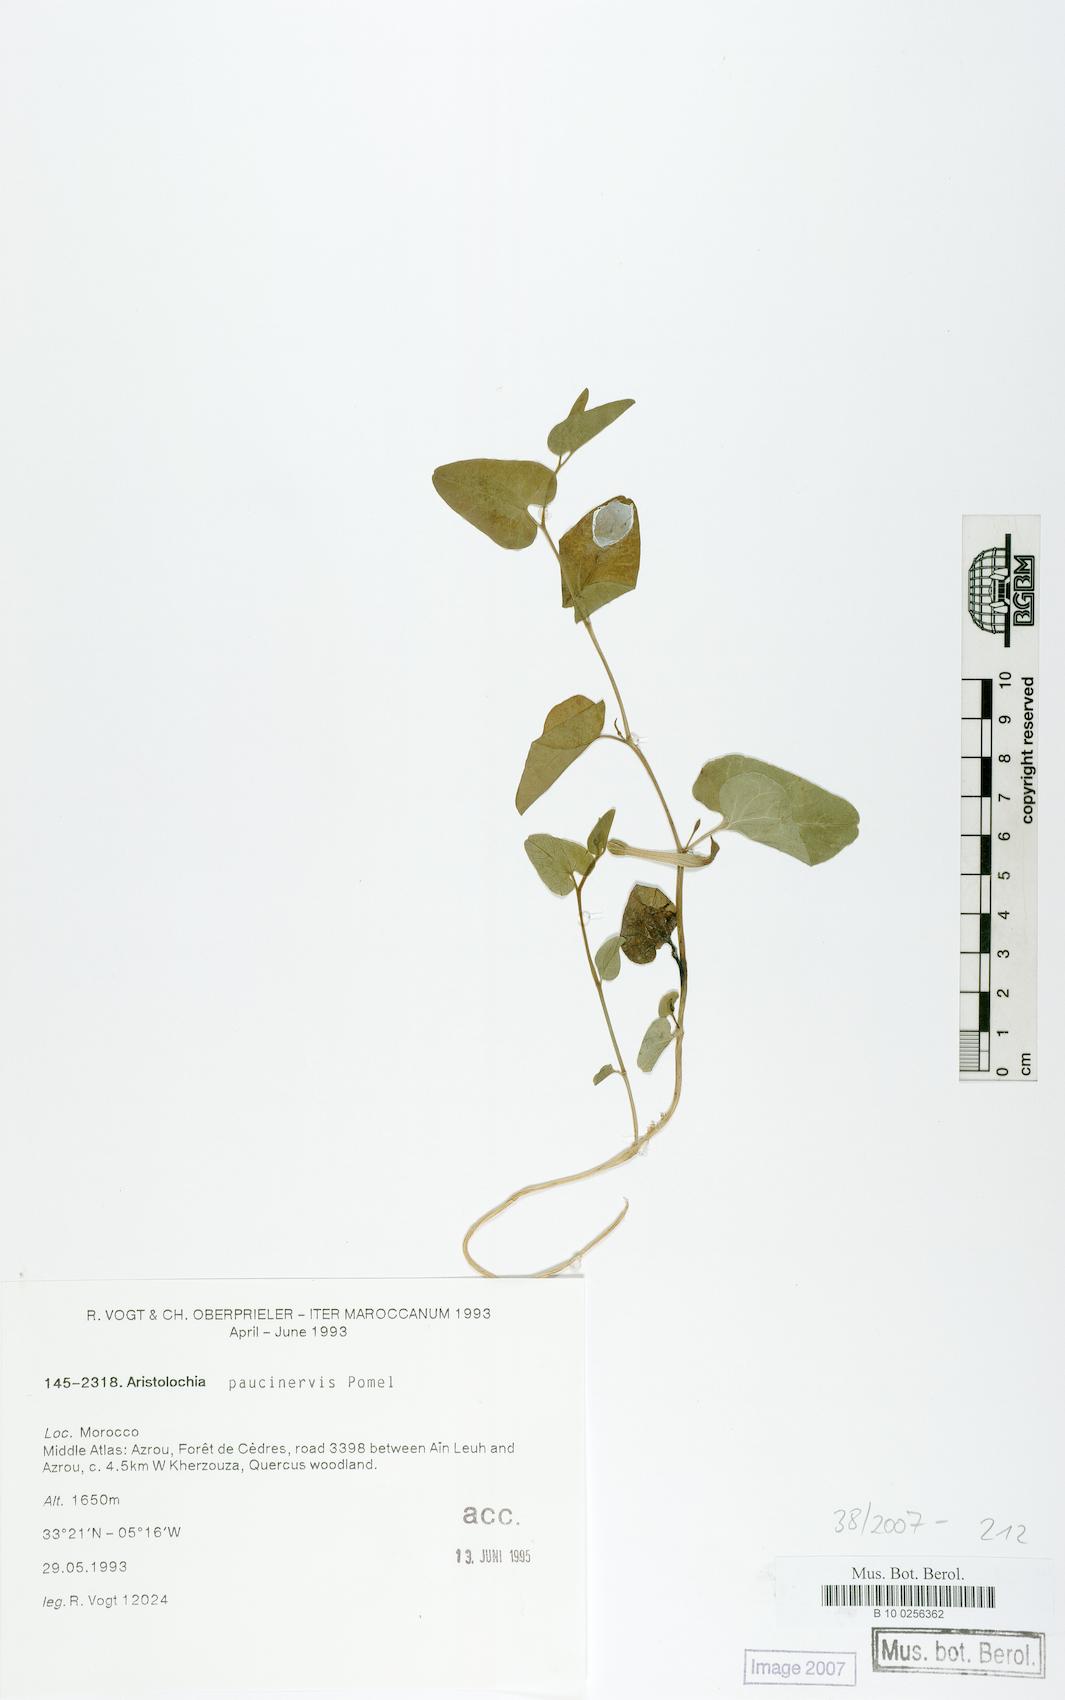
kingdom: Plantae
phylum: Tracheophyta
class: Magnoliopsida
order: Piperales
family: Aristolochiaceae
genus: Aristolochia
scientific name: Aristolochia paucinervis
